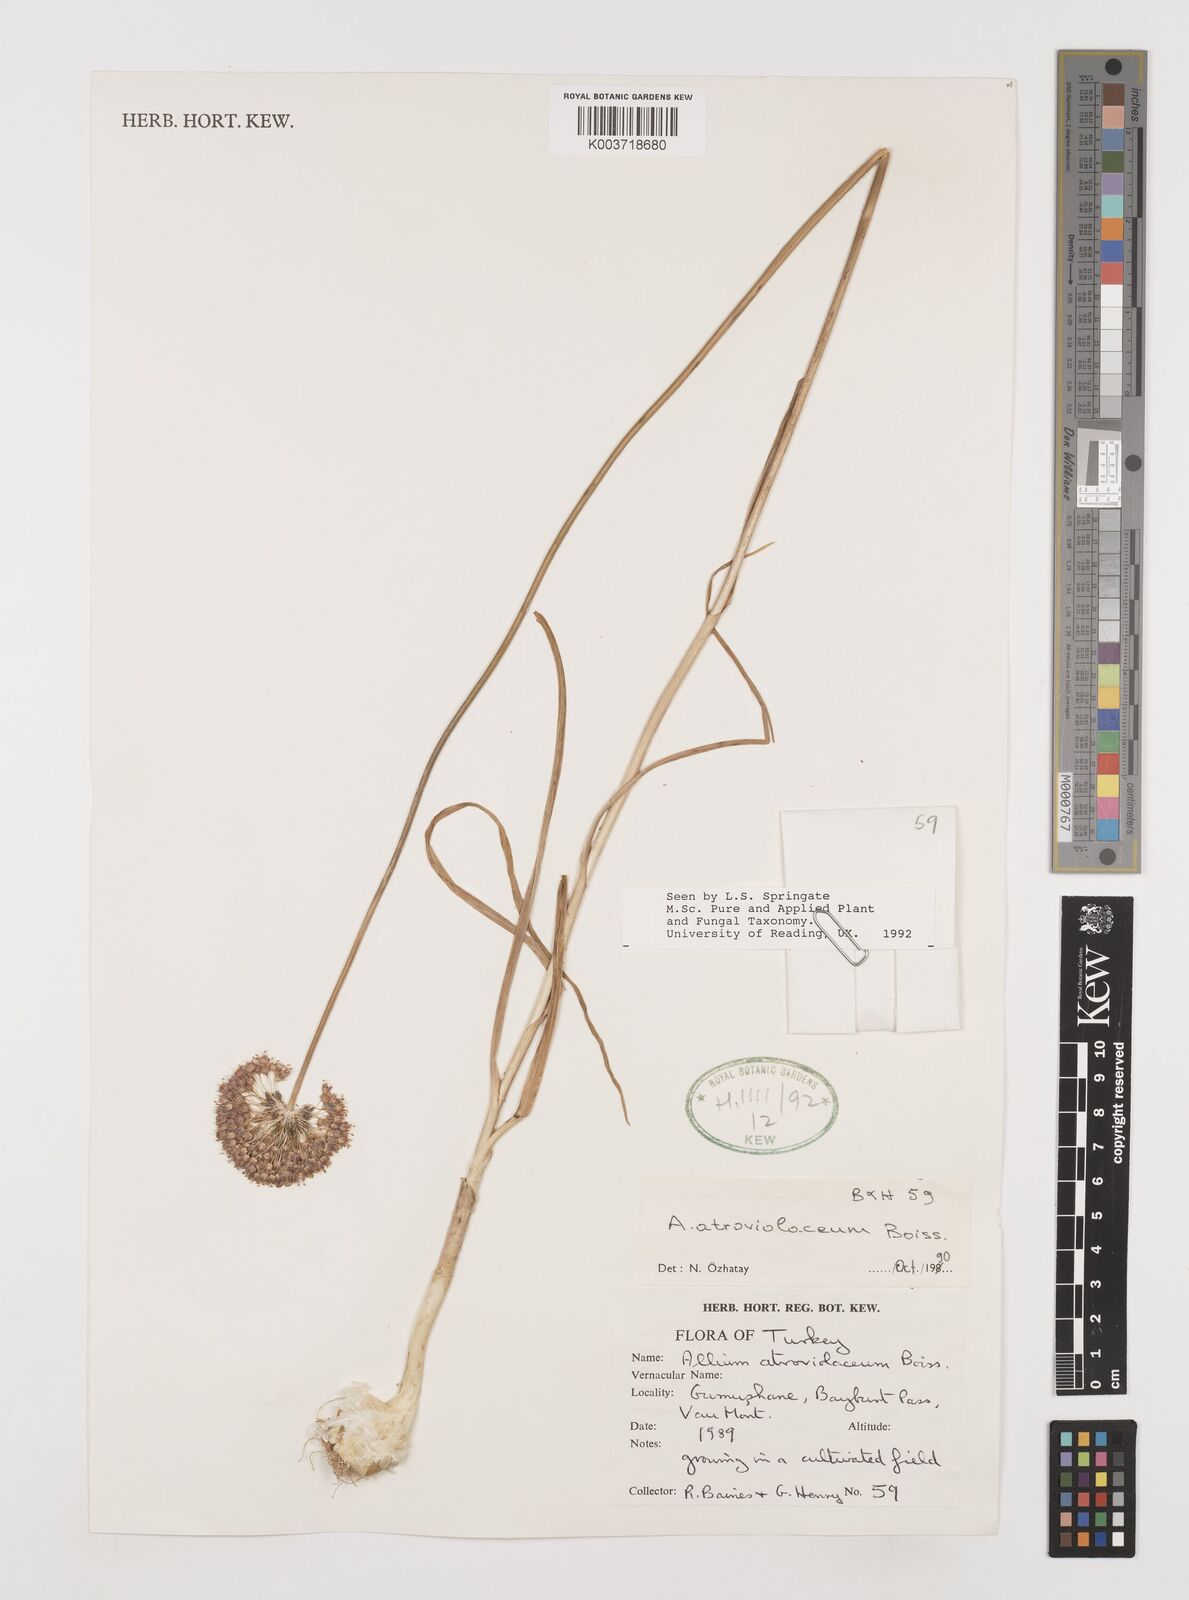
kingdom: Plantae
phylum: Tracheophyta
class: Liliopsida
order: Asparagales
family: Amaryllidaceae
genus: Allium
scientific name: Allium atroviolaceum
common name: Broadleaf wild leek
